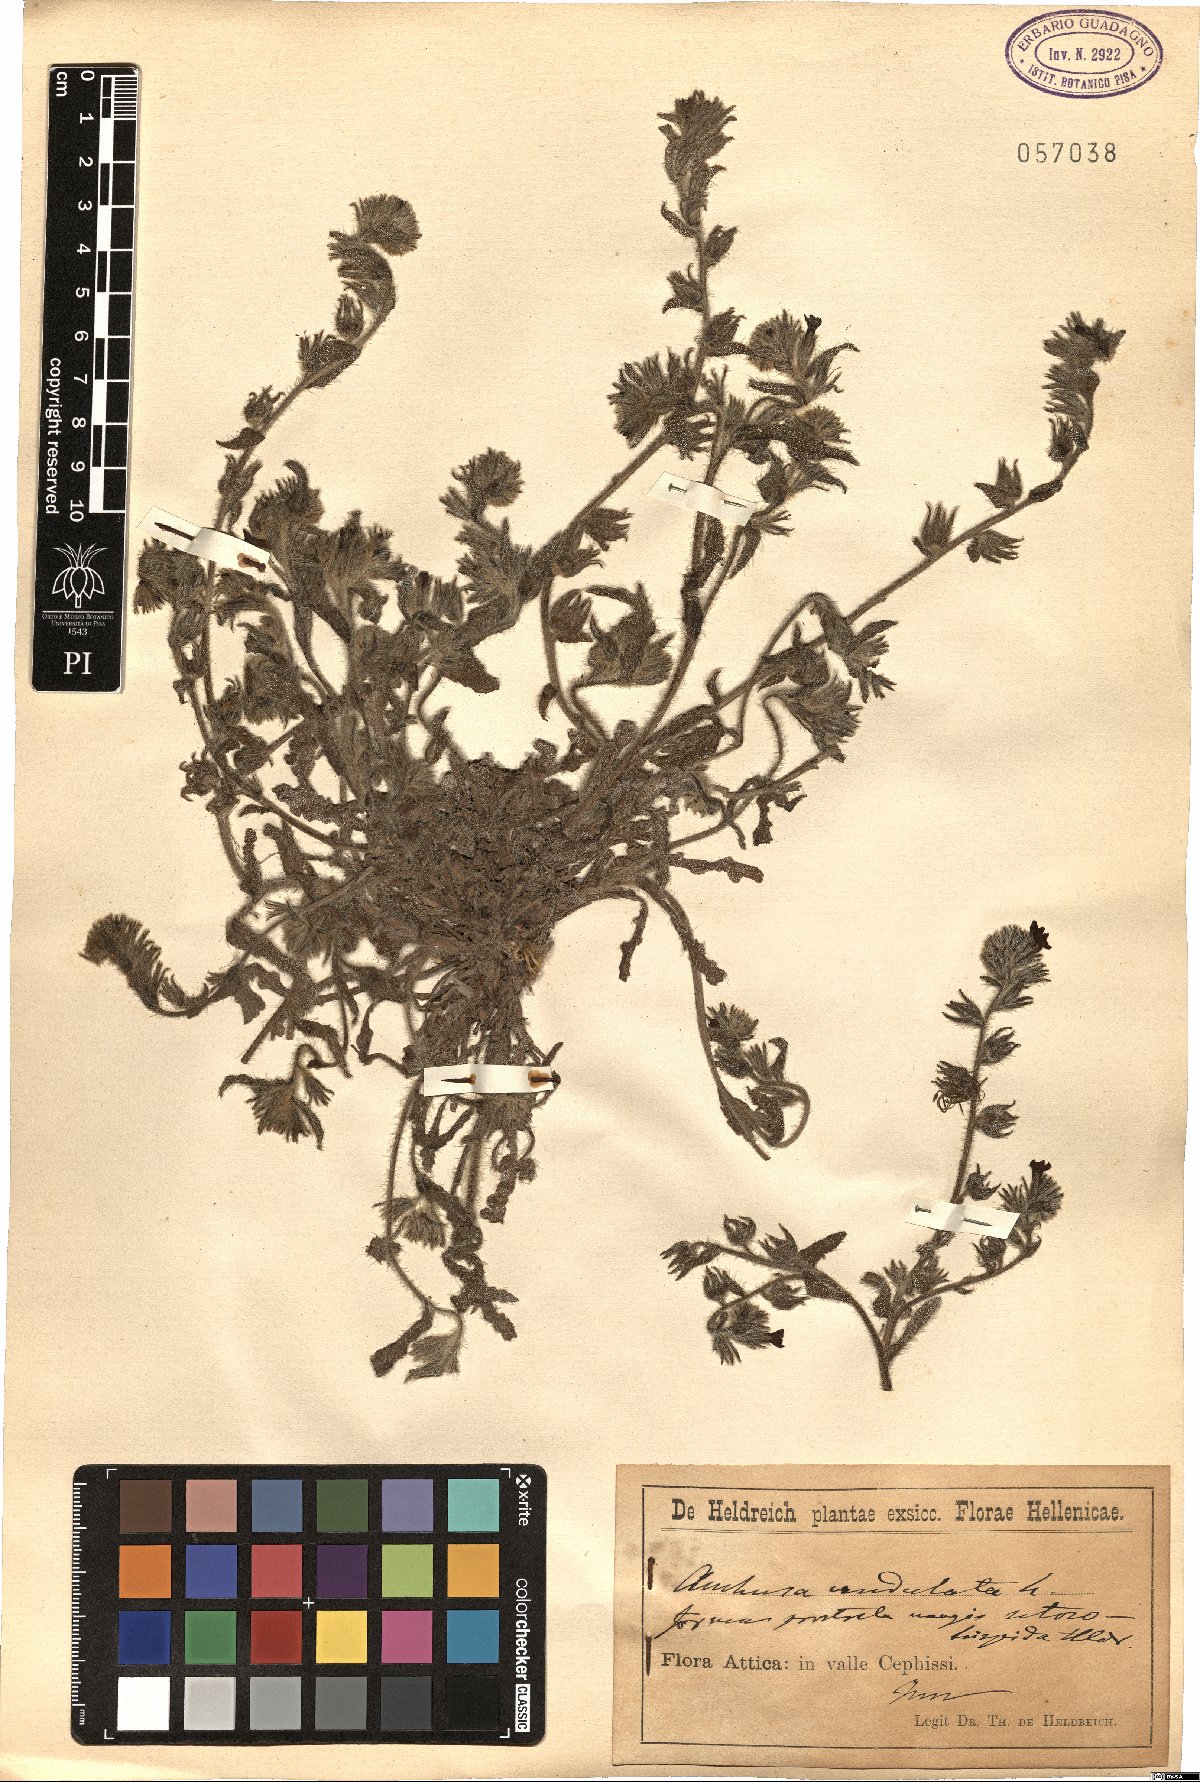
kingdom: Plantae
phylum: Tracheophyta
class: Magnoliopsida
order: Boraginales
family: Boraginaceae
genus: Anchusa
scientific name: Anchusa undulata
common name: Undulate alkanet
